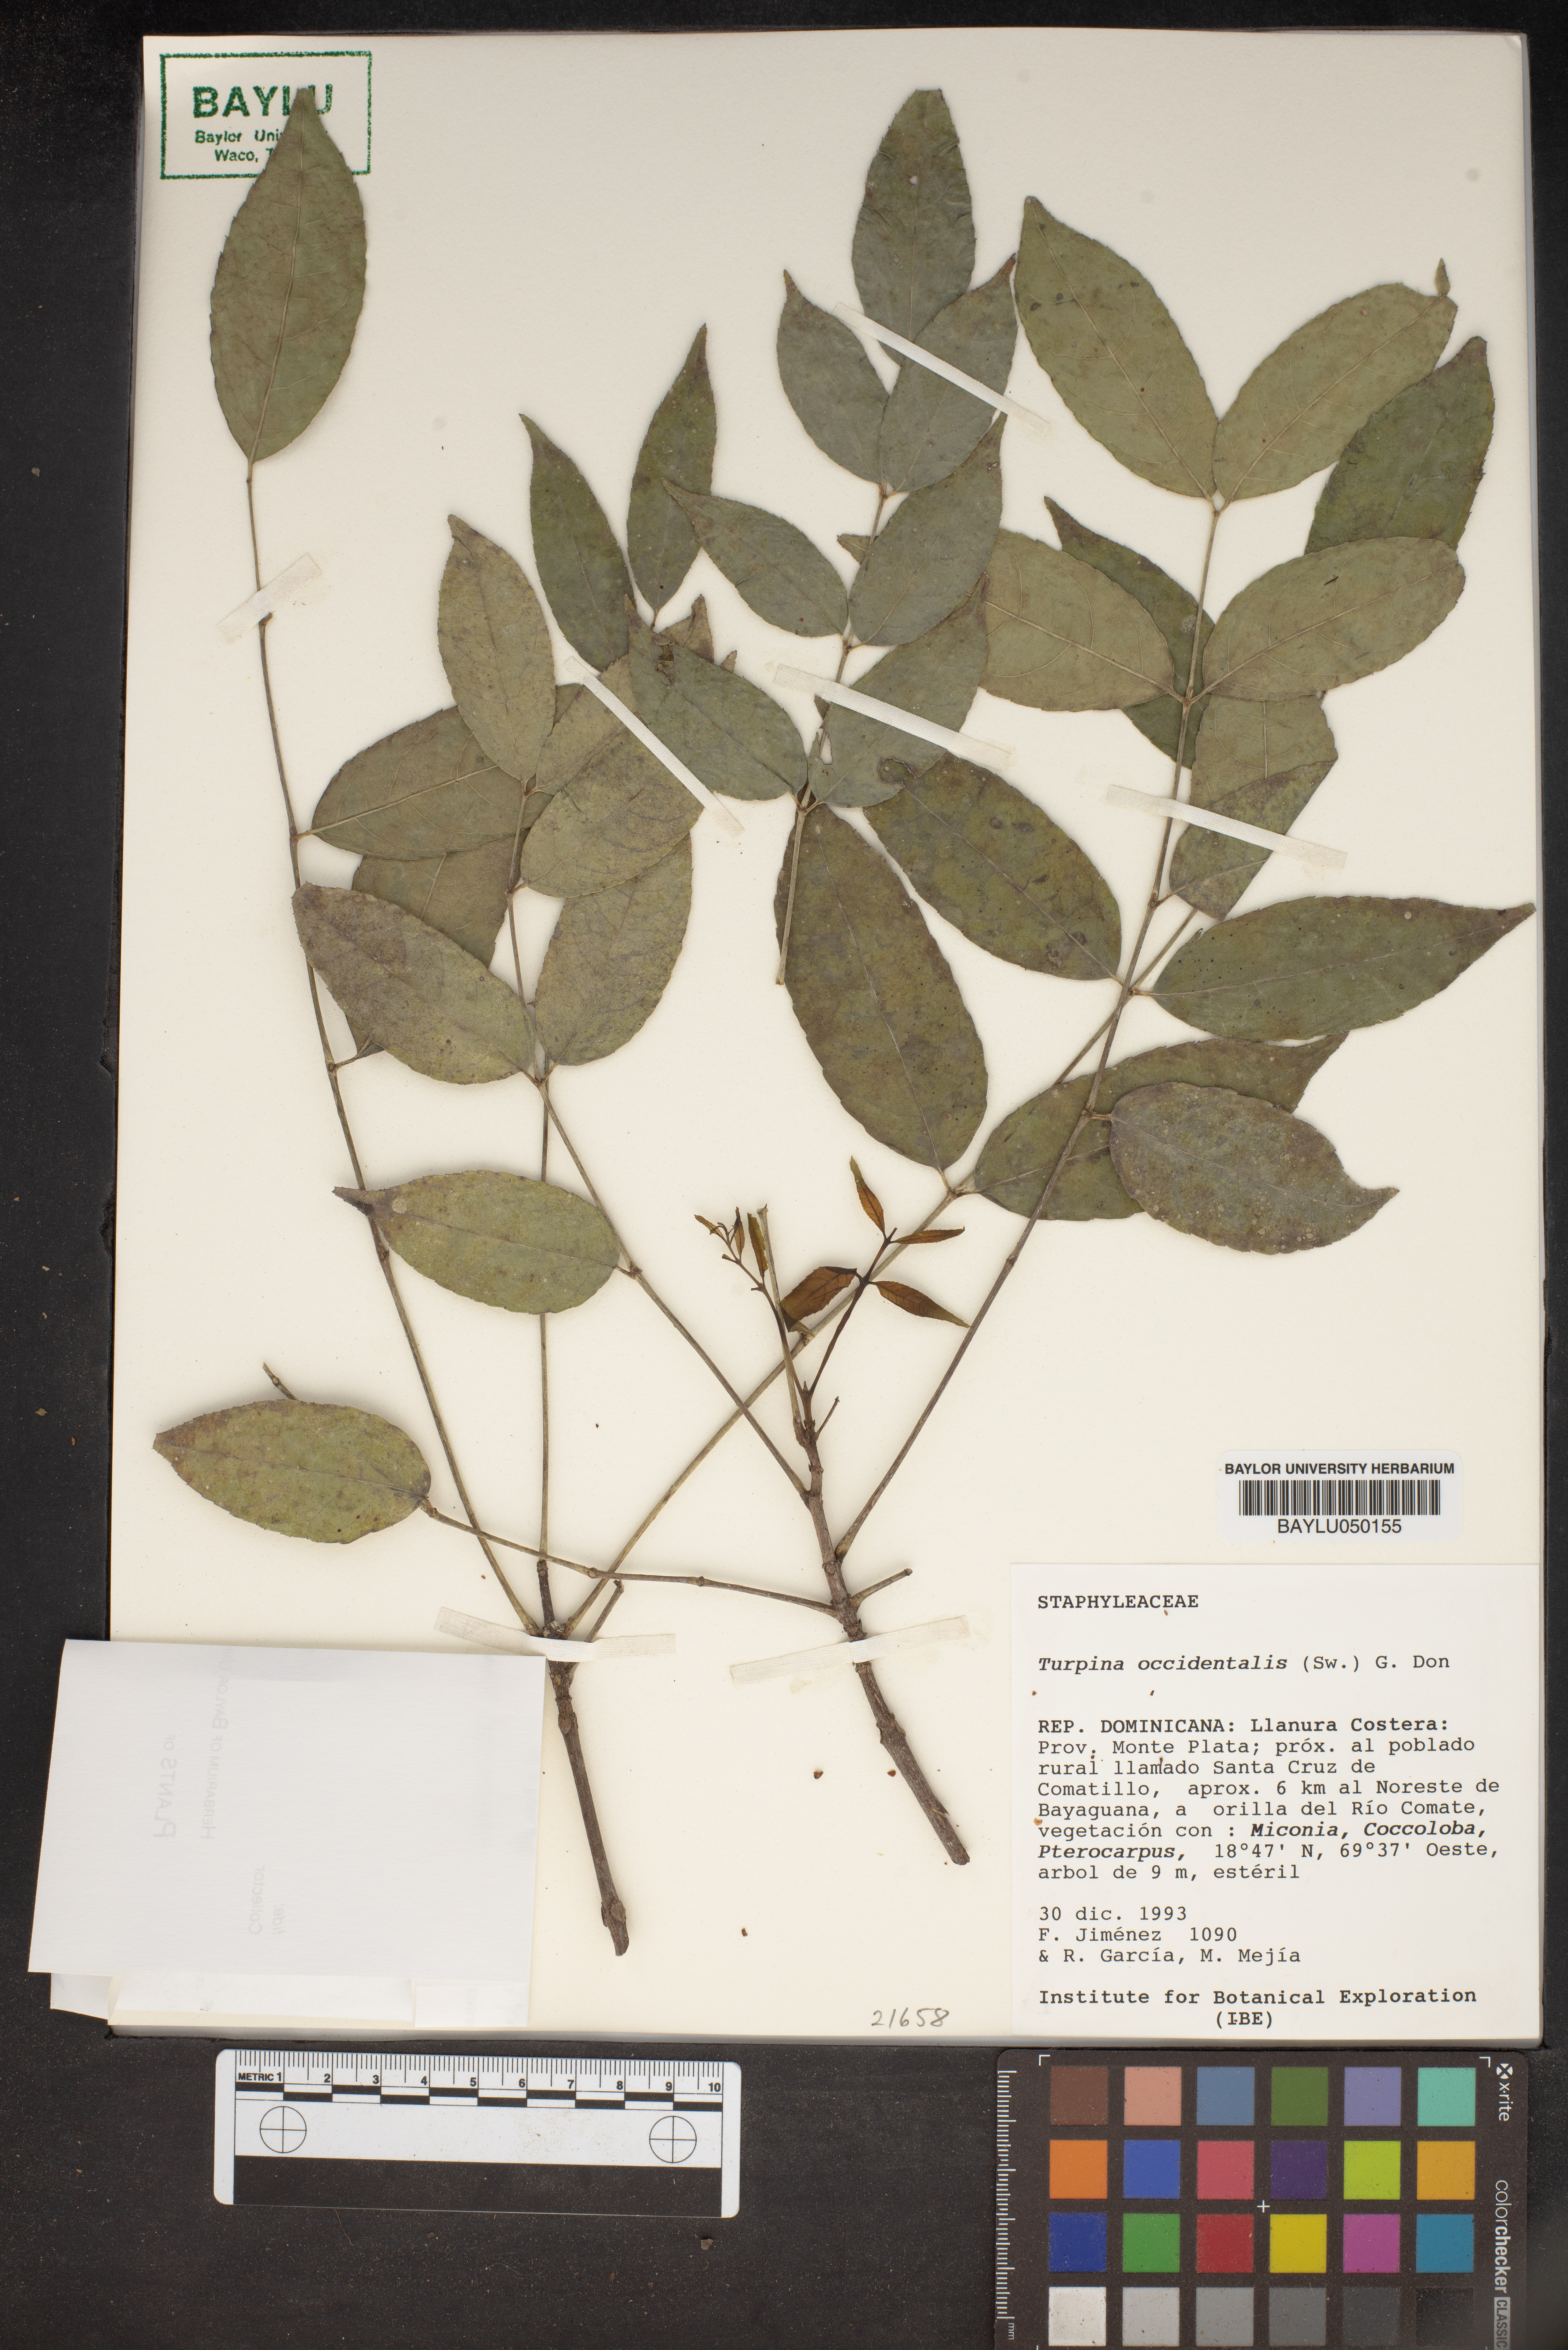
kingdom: Plantae
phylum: Tracheophyta
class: Magnoliopsida
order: Crossosomatales
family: Staphyleaceae
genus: Turpinia
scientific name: Turpinia occidentalis
